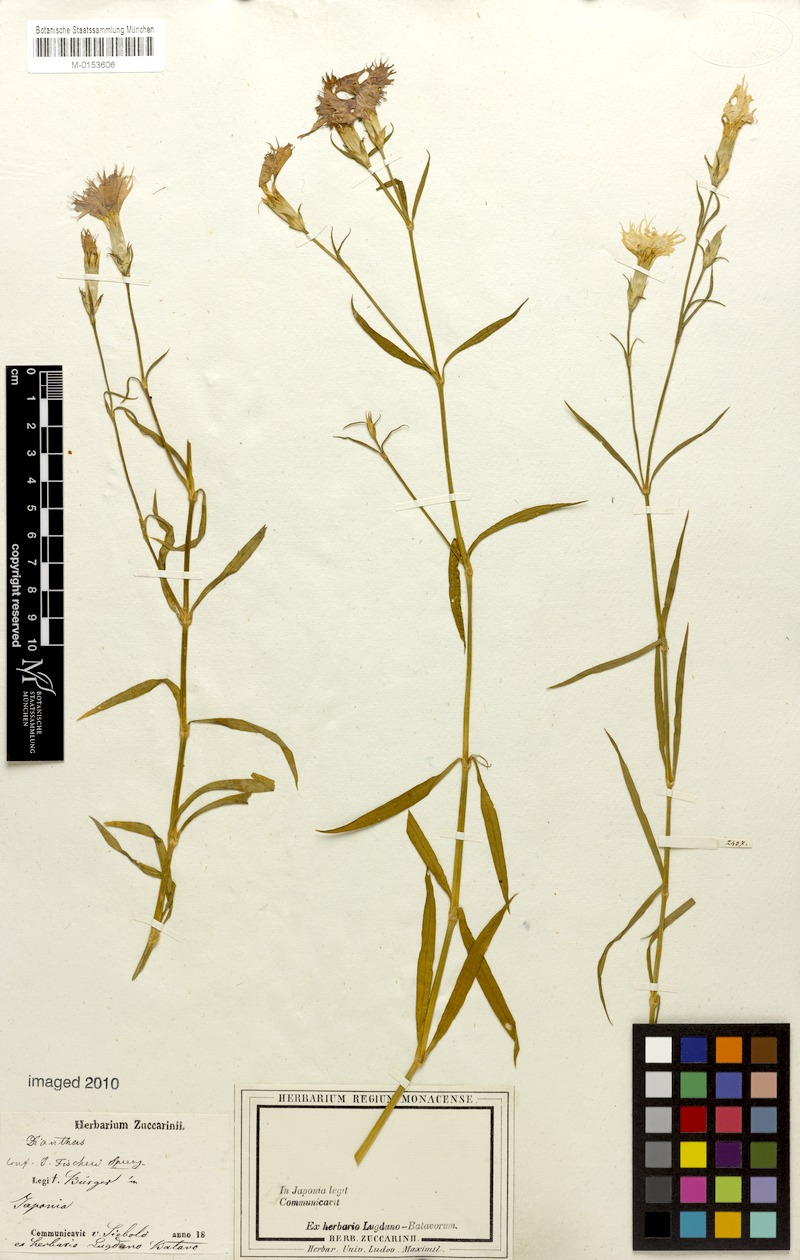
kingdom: Plantae
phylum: Tracheophyta
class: Magnoliopsida
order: Caryophyllales
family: Caryophyllaceae
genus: Dianthus
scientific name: Dianthus chinensis
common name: Rainbow pink
